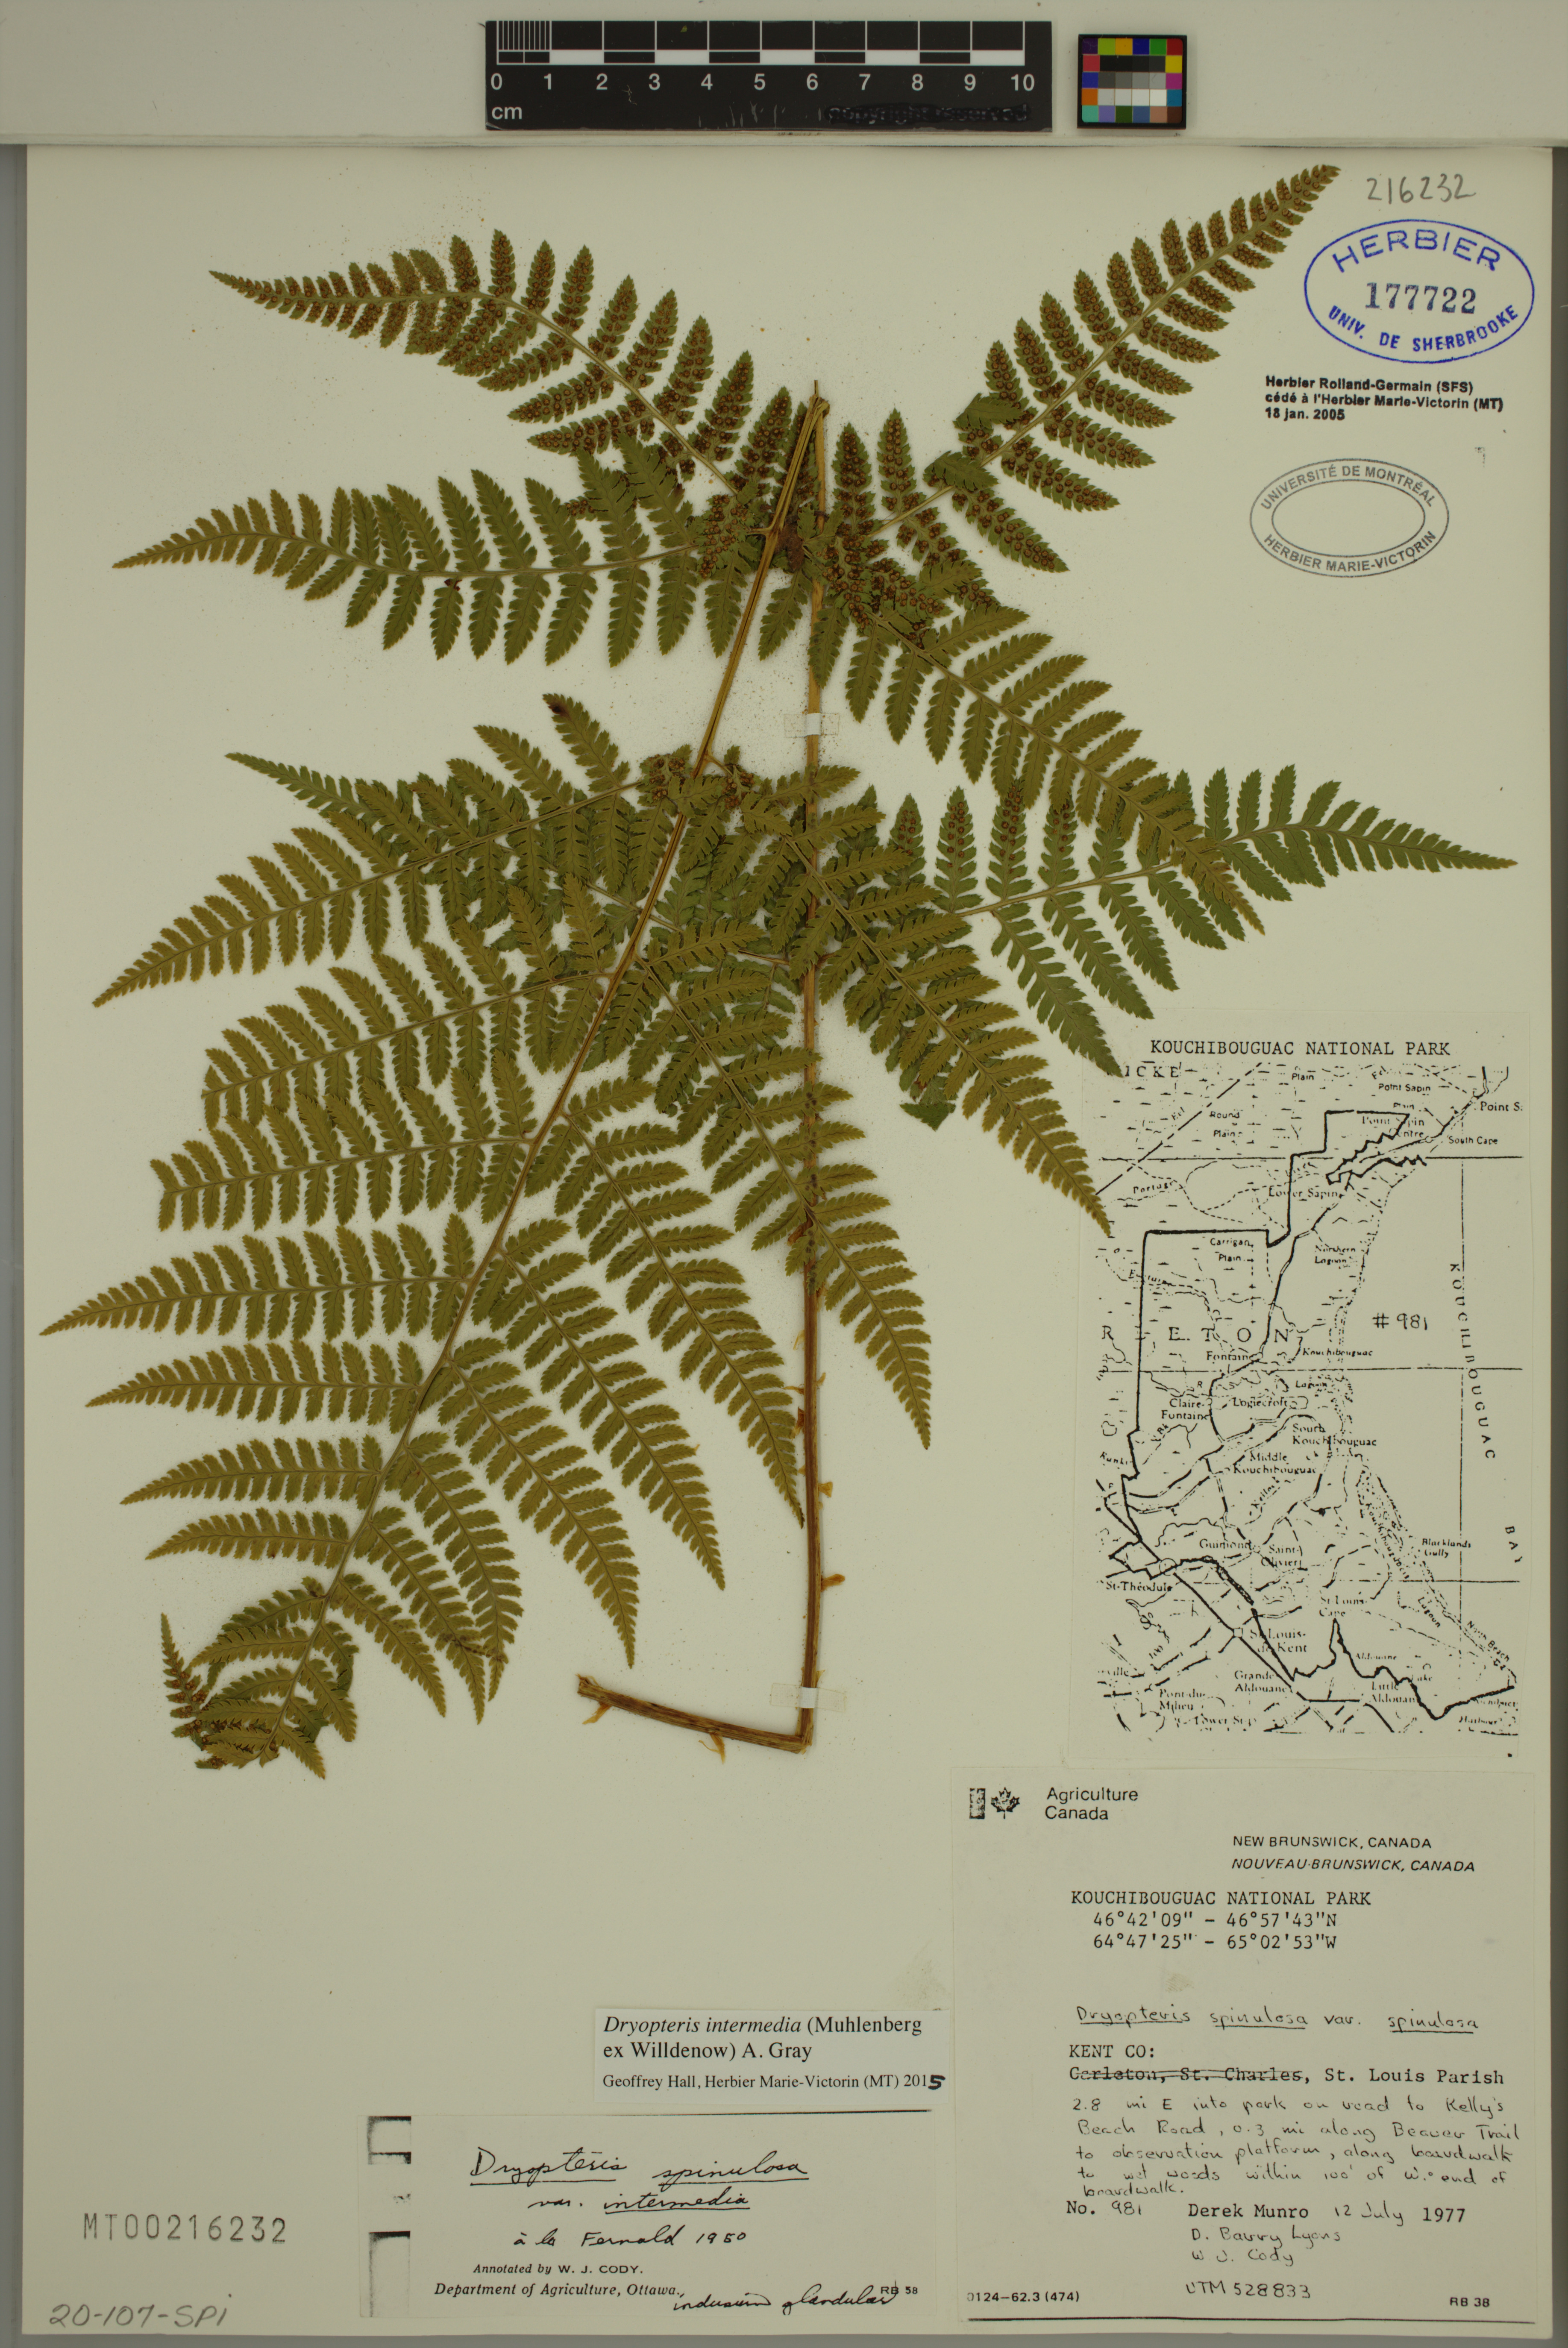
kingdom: Plantae
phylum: Tracheophyta
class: Polypodiopsida
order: Polypodiales
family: Dryopteridaceae
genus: Dryopteris
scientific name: Dryopteris intermedia
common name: Evergreen wood fern
